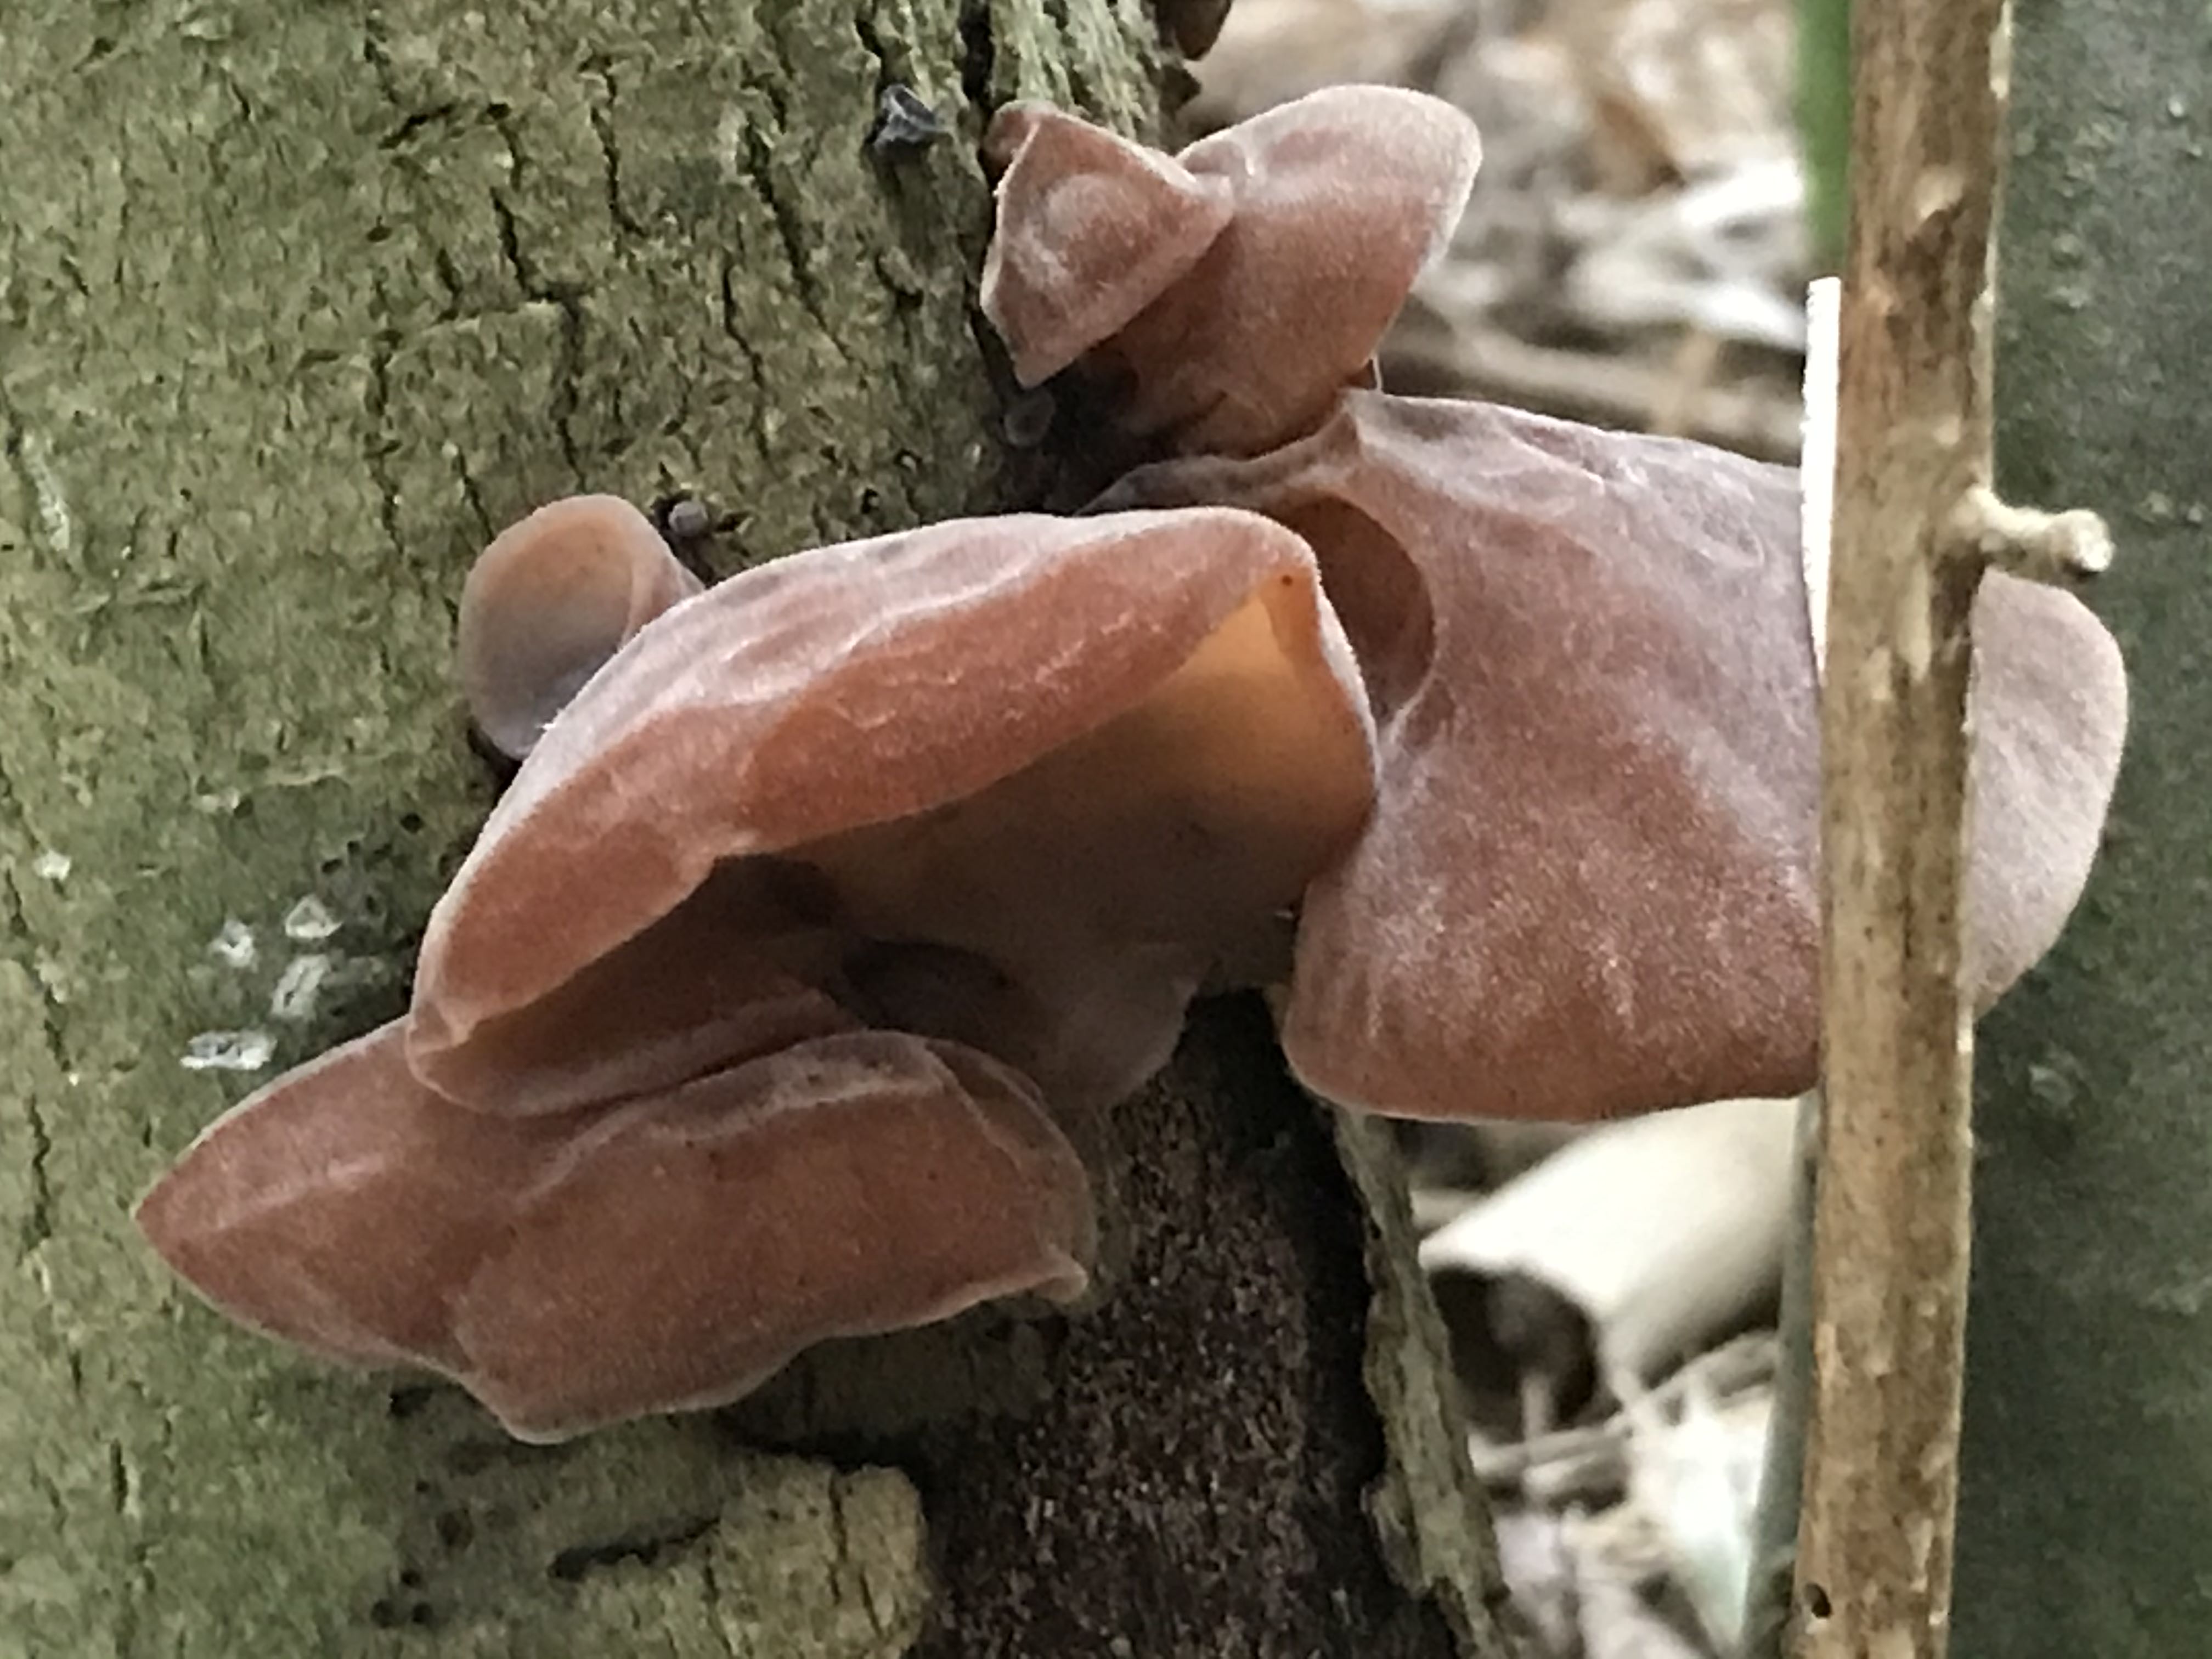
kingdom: Fungi
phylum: Basidiomycota
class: Agaricomycetes
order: Auriculariales
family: Auriculariaceae
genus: Auricularia
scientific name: Auricularia auricula-judae
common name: almindelig judasøre
